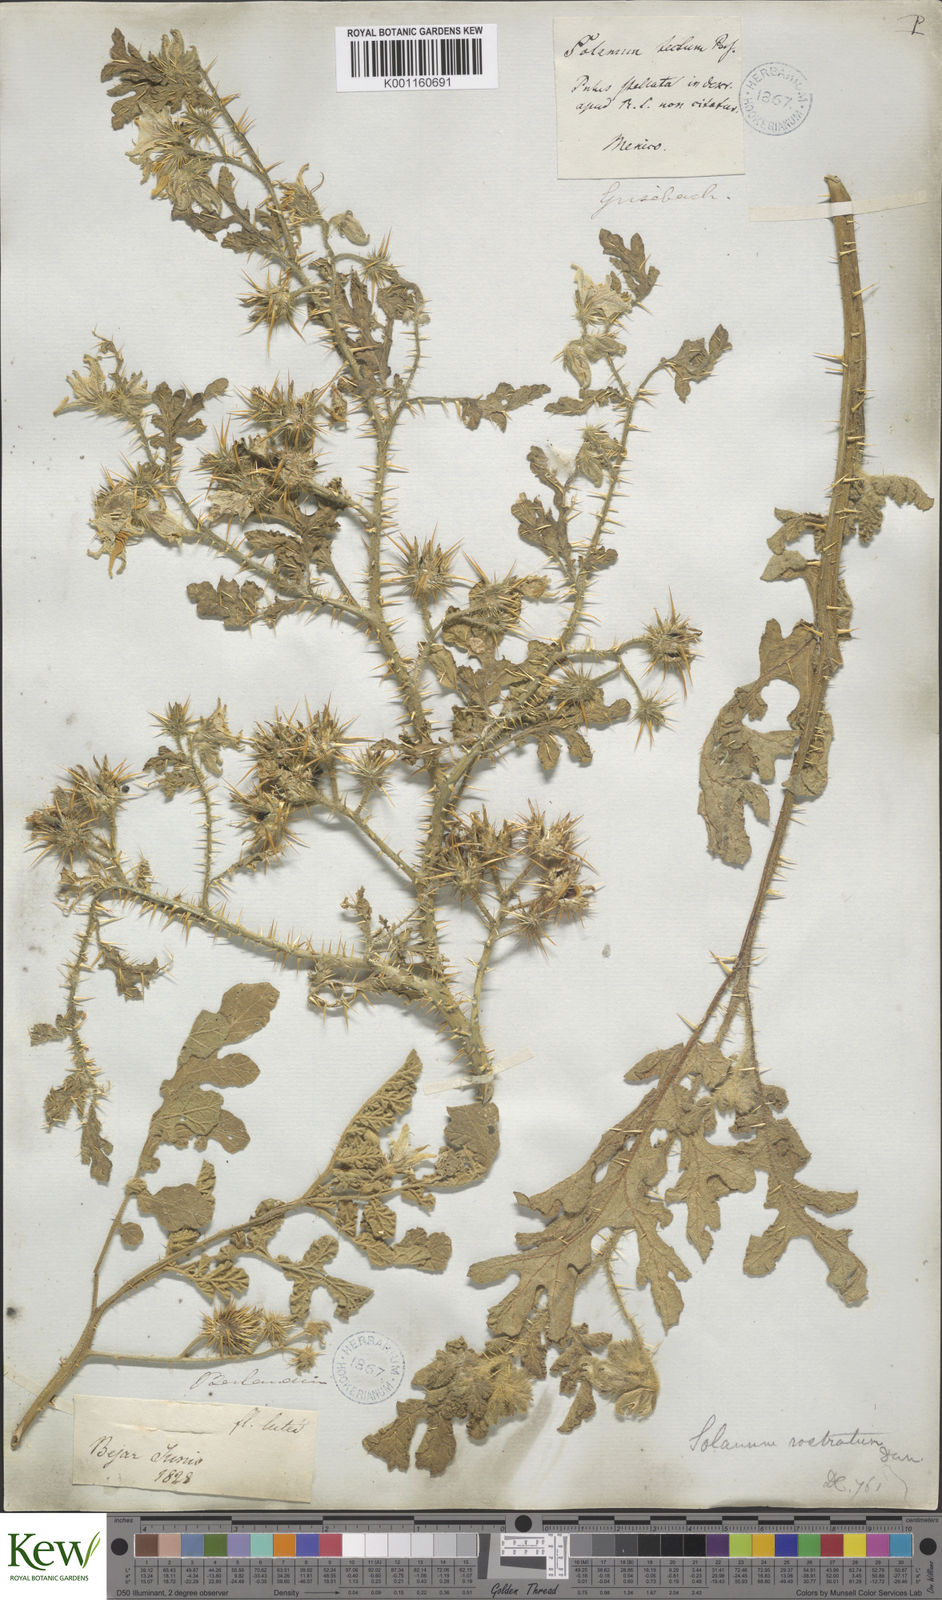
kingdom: Plantae
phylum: Tracheophyta
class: Magnoliopsida
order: Solanales
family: Solanaceae
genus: Solanum
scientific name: Solanum angustifolium
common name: Buffalobur nightshade
